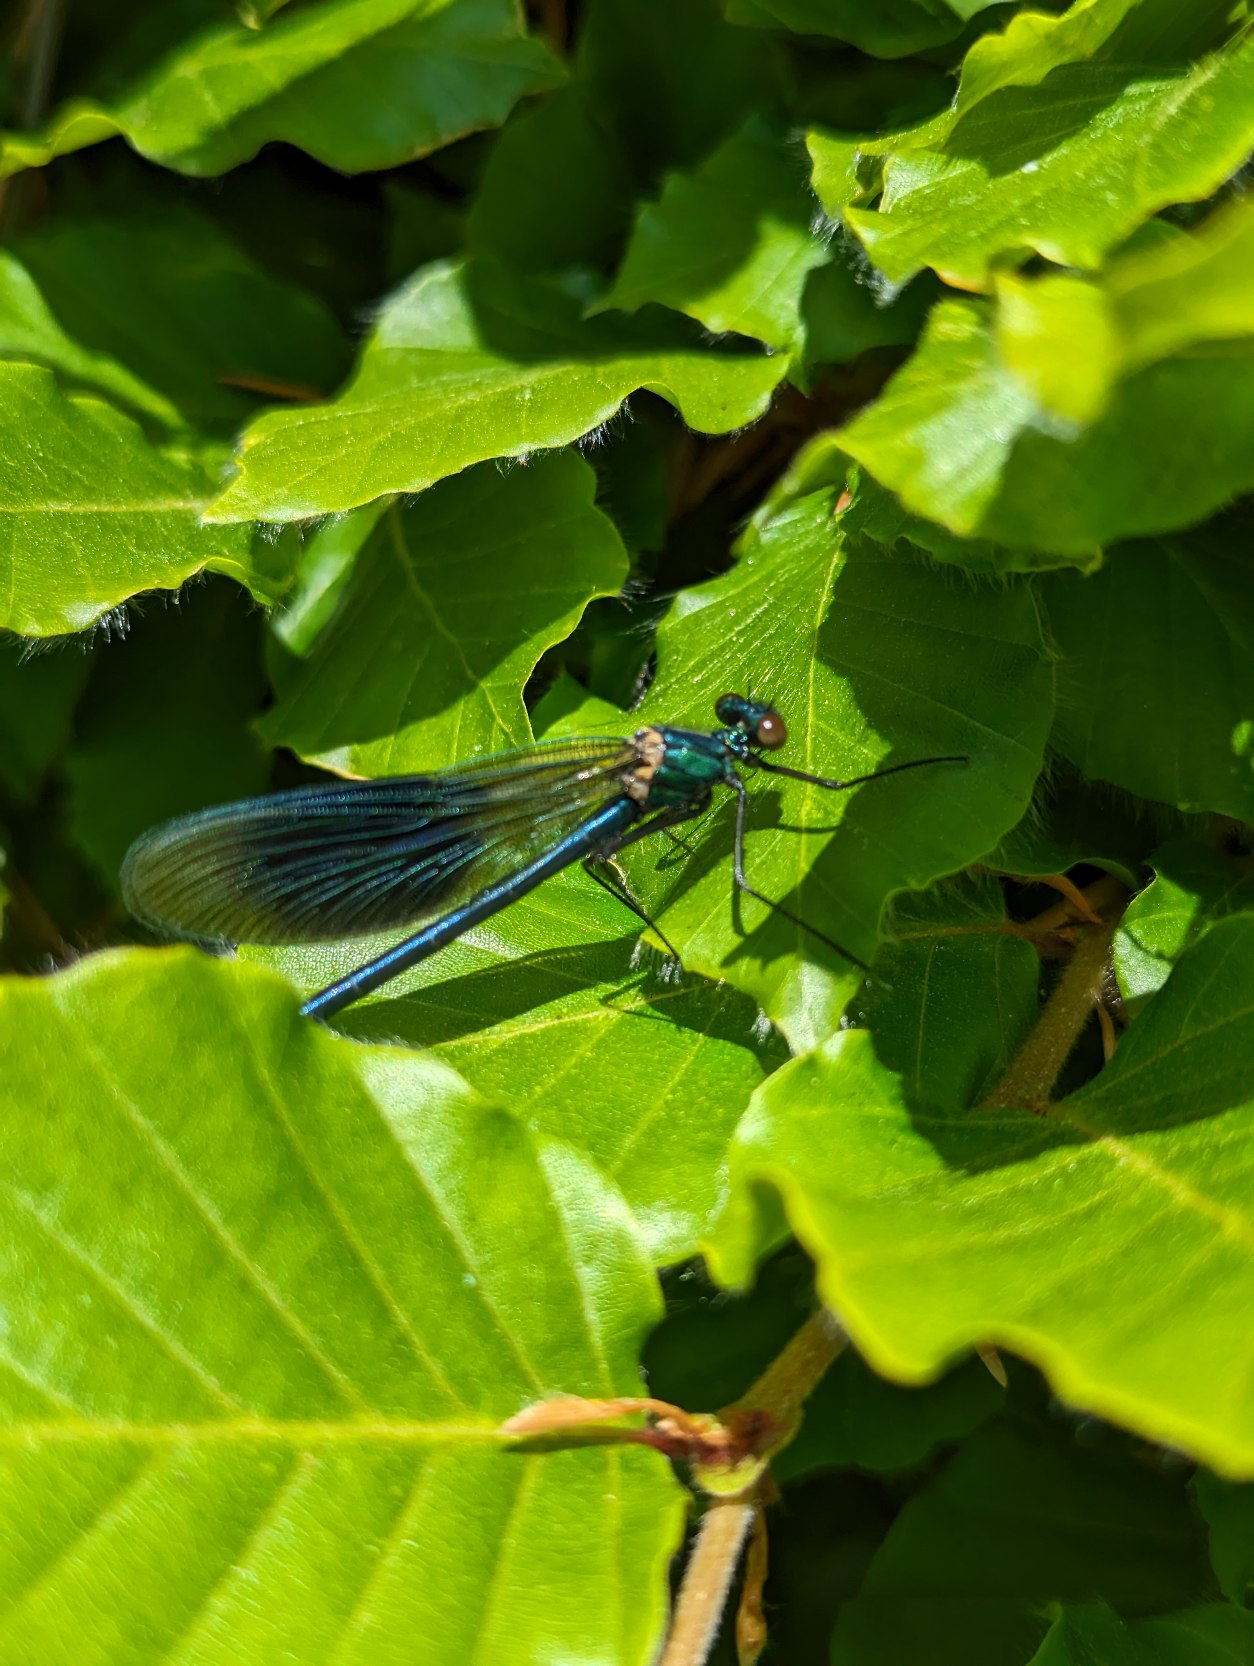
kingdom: Animalia
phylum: Arthropoda
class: Insecta
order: Odonata
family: Calopterygidae
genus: Calopteryx
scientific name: Calopteryx splendens
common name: Blåbåndet pragtvandnymfe
